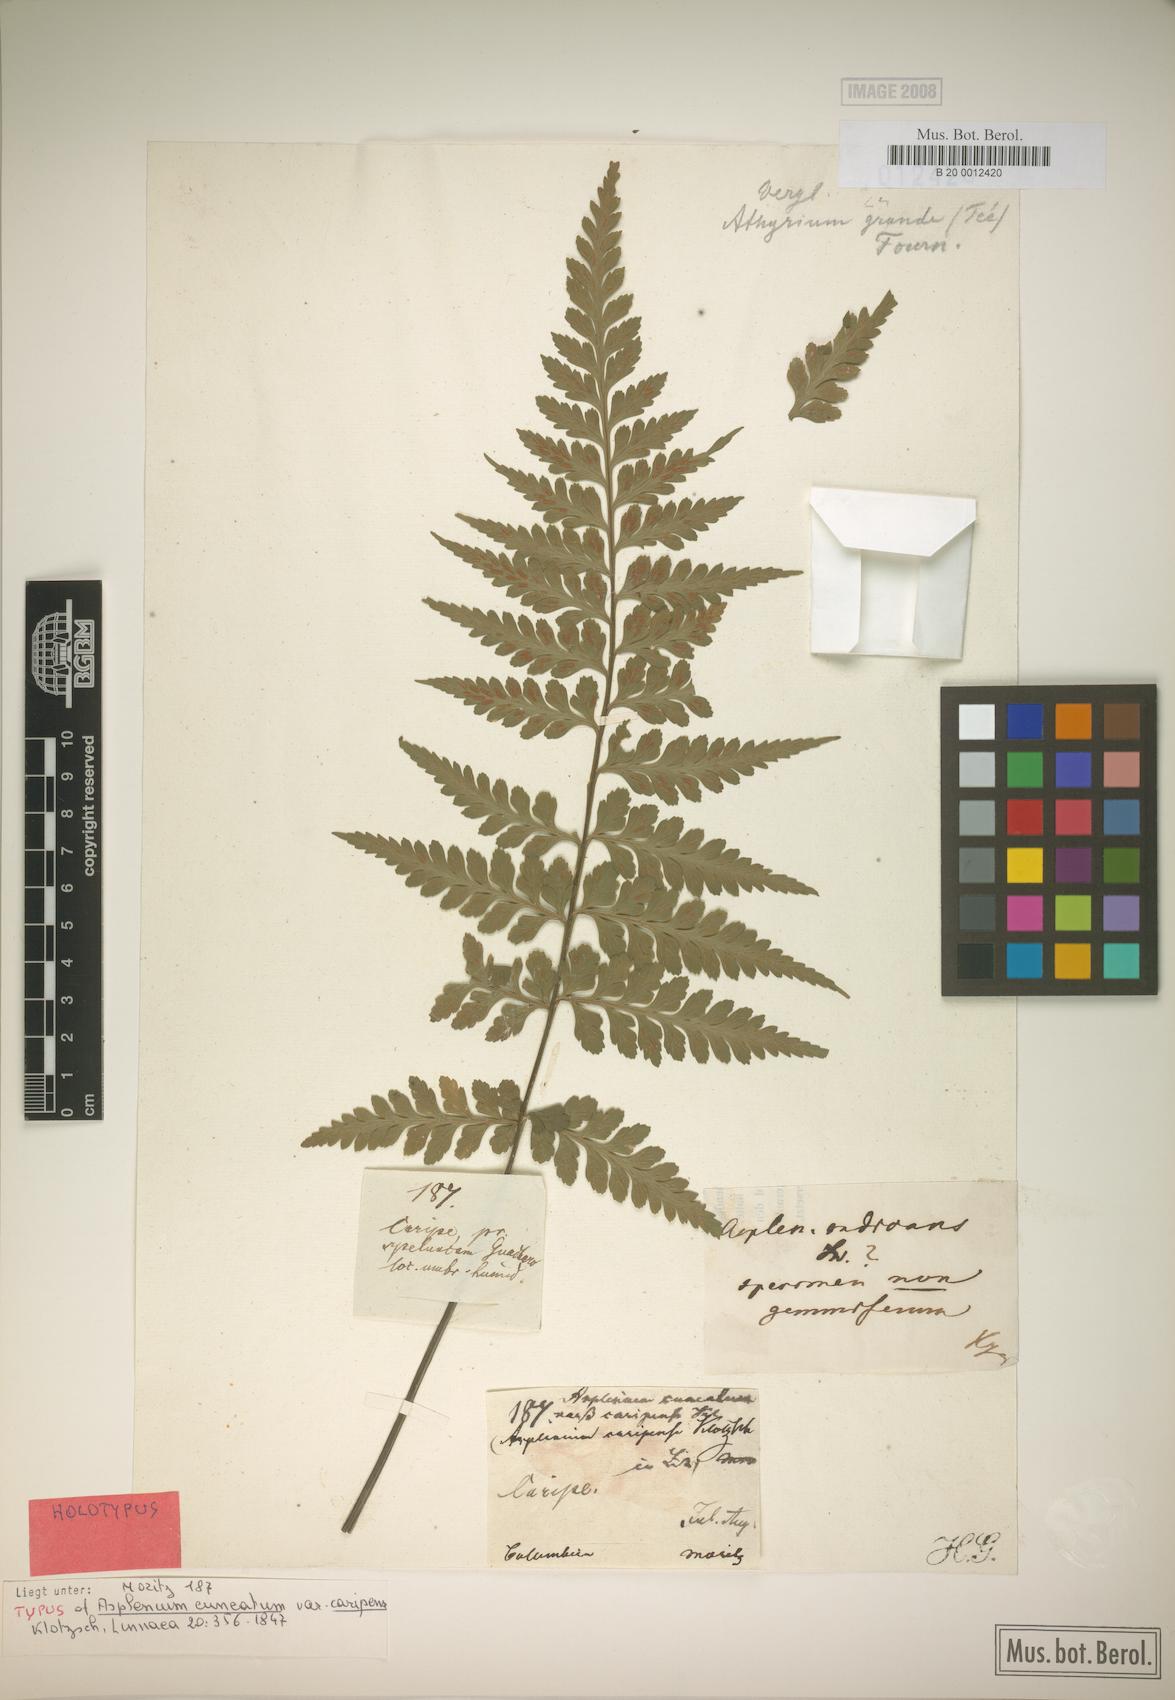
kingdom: Plantae
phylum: Tracheophyta
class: Polypodiopsida
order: Polypodiales
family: Aspleniaceae
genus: Asplenium
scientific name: Asplenium caripense
